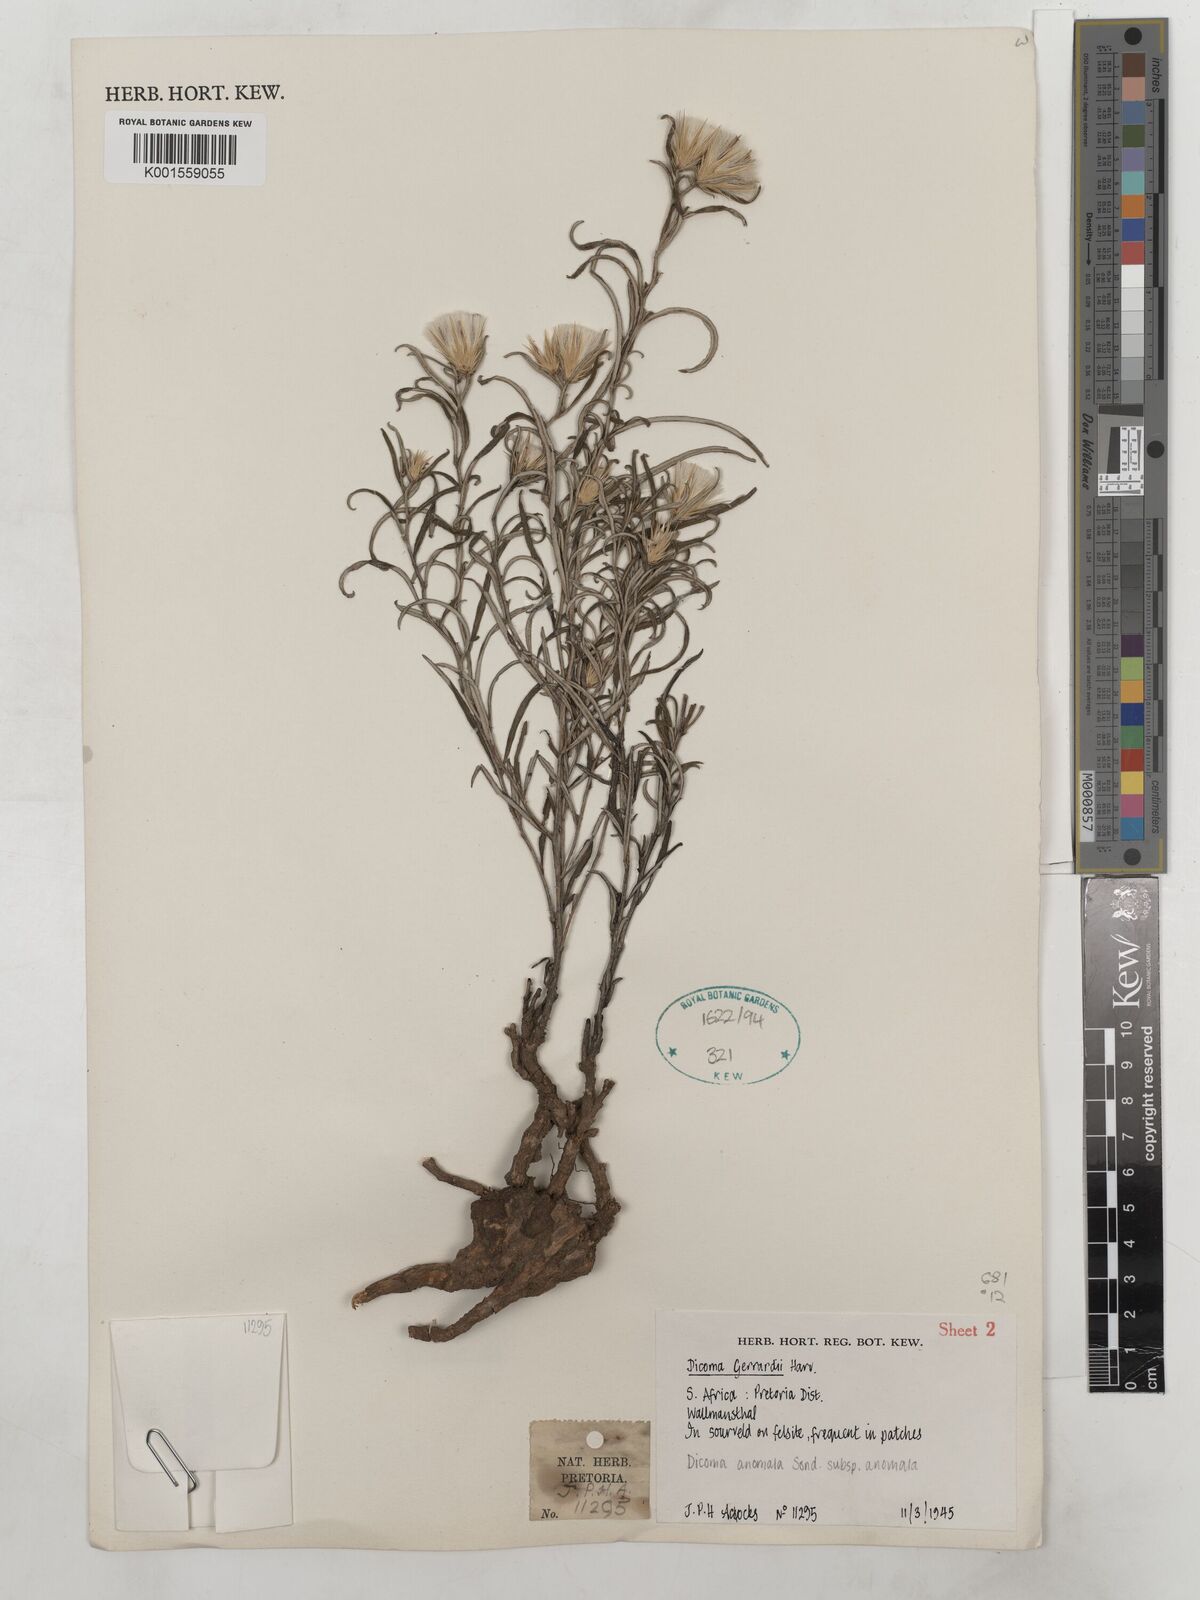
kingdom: Plantae
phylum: Tracheophyta
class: Magnoliopsida
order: Asterales
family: Asteraceae
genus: Dicoma
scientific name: Dicoma anomala
